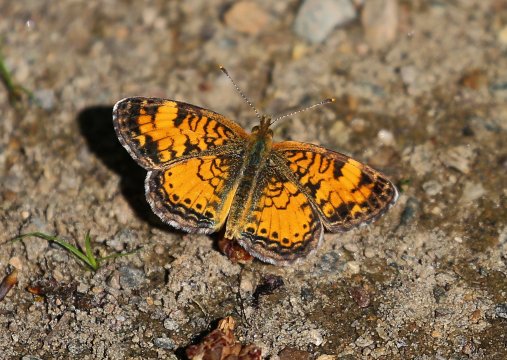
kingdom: Animalia
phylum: Arthropoda
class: Insecta
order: Lepidoptera
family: Nymphalidae
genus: Phyciodes
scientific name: Phyciodes tharos
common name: Pearl Crescent
